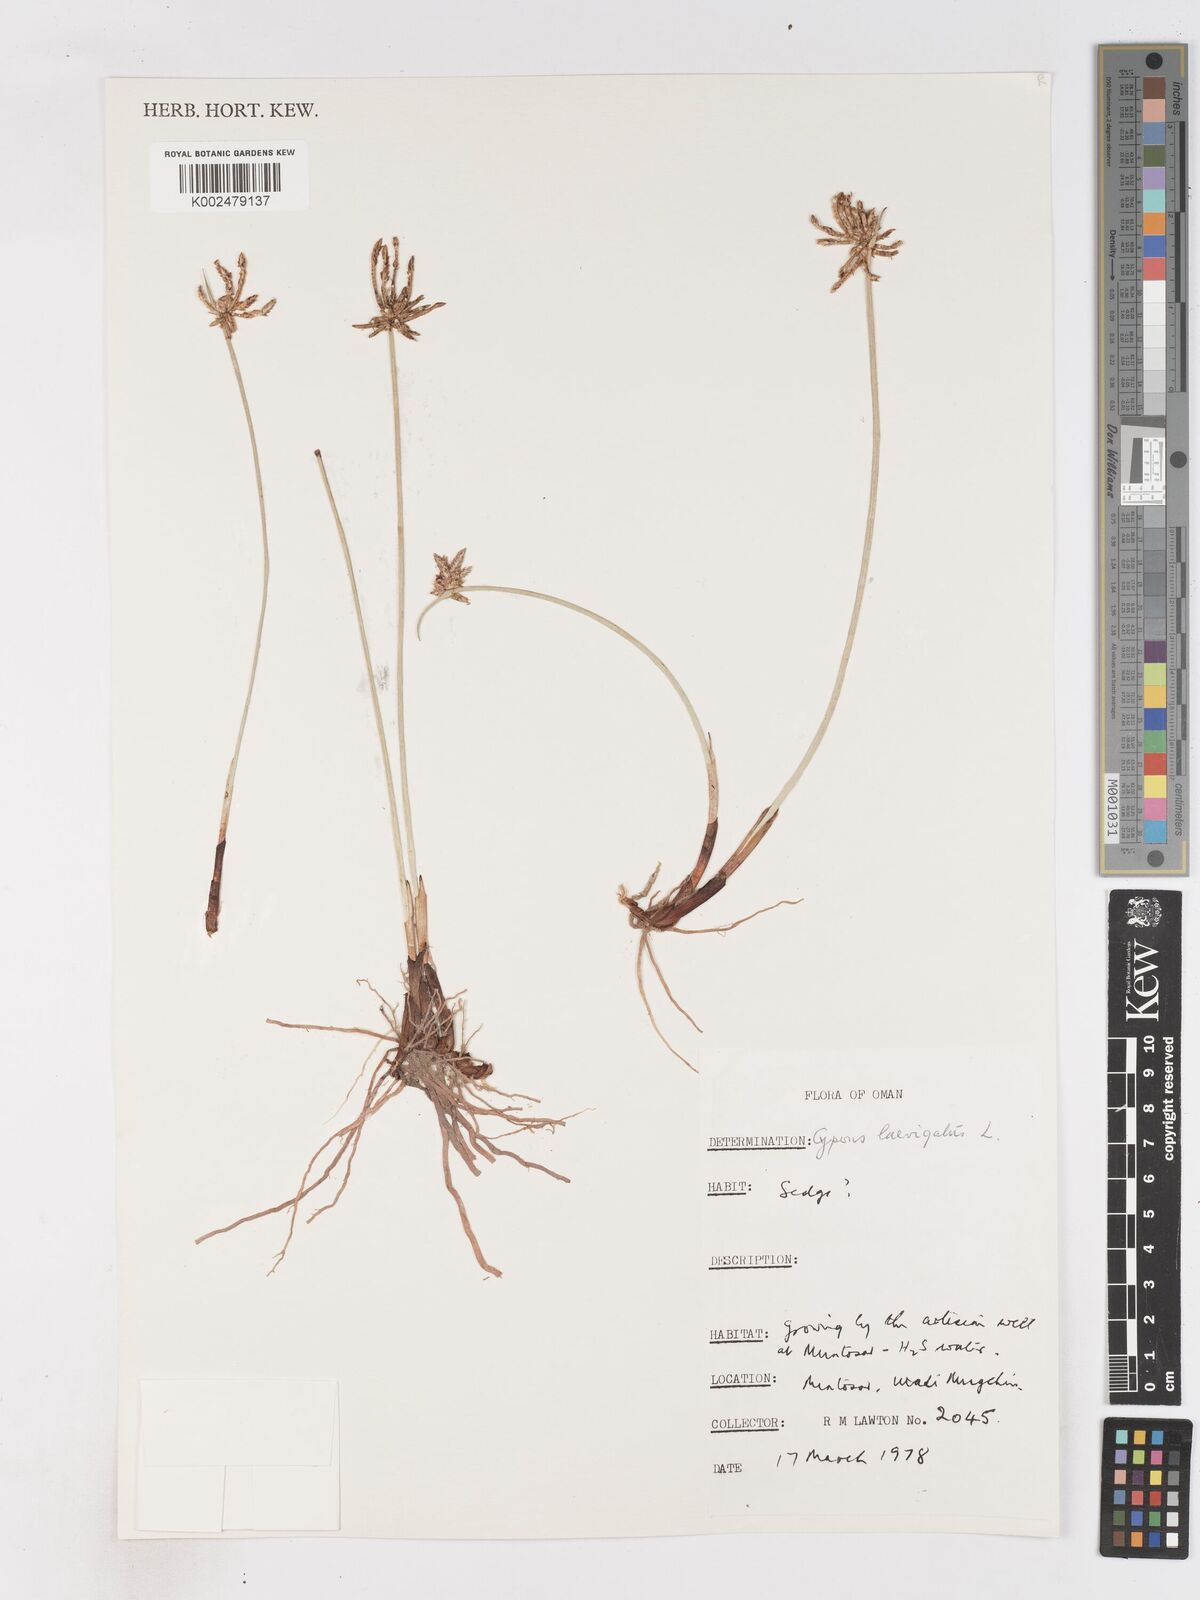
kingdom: Plantae
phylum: Tracheophyta
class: Liliopsida
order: Poales
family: Cyperaceae
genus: Cyperus
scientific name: Cyperus laevigatus
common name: Smooth flat sedge
